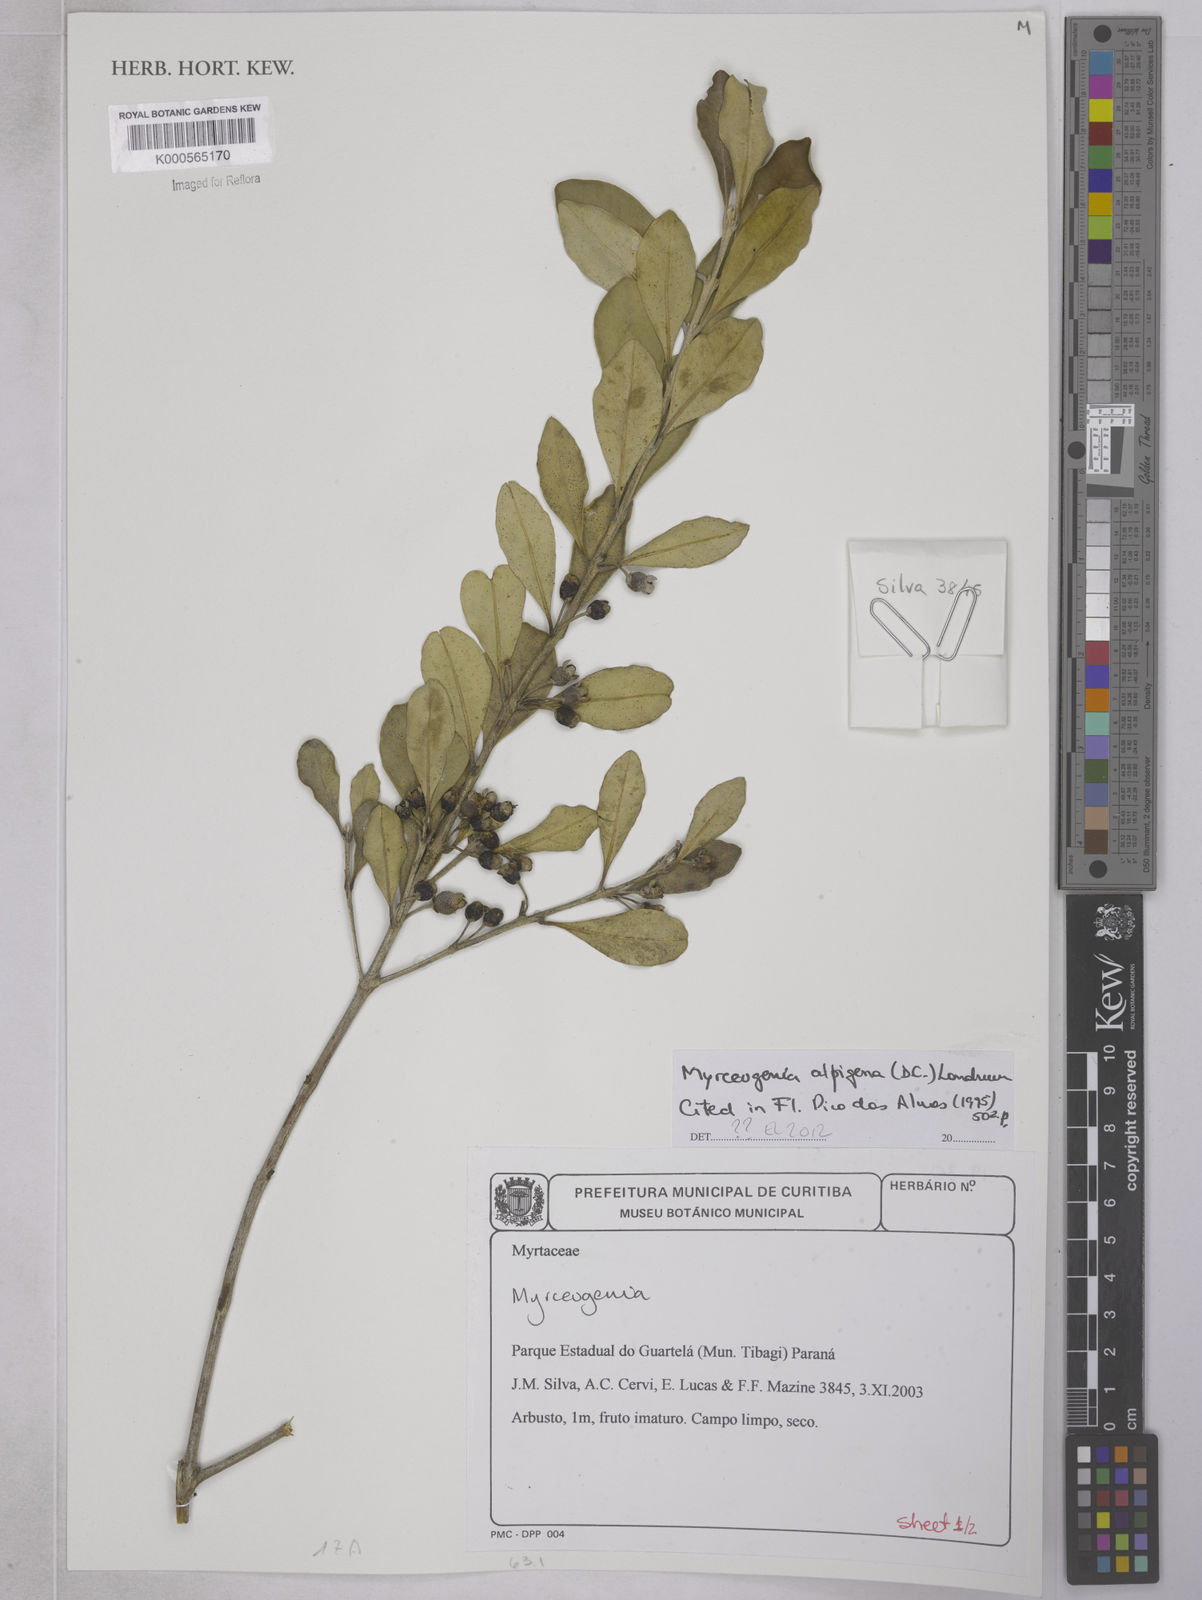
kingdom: Plantae
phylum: Tracheophyta
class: Magnoliopsida
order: Myrtales
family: Myrtaceae
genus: Myrceugenia
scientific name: Myrceugenia
